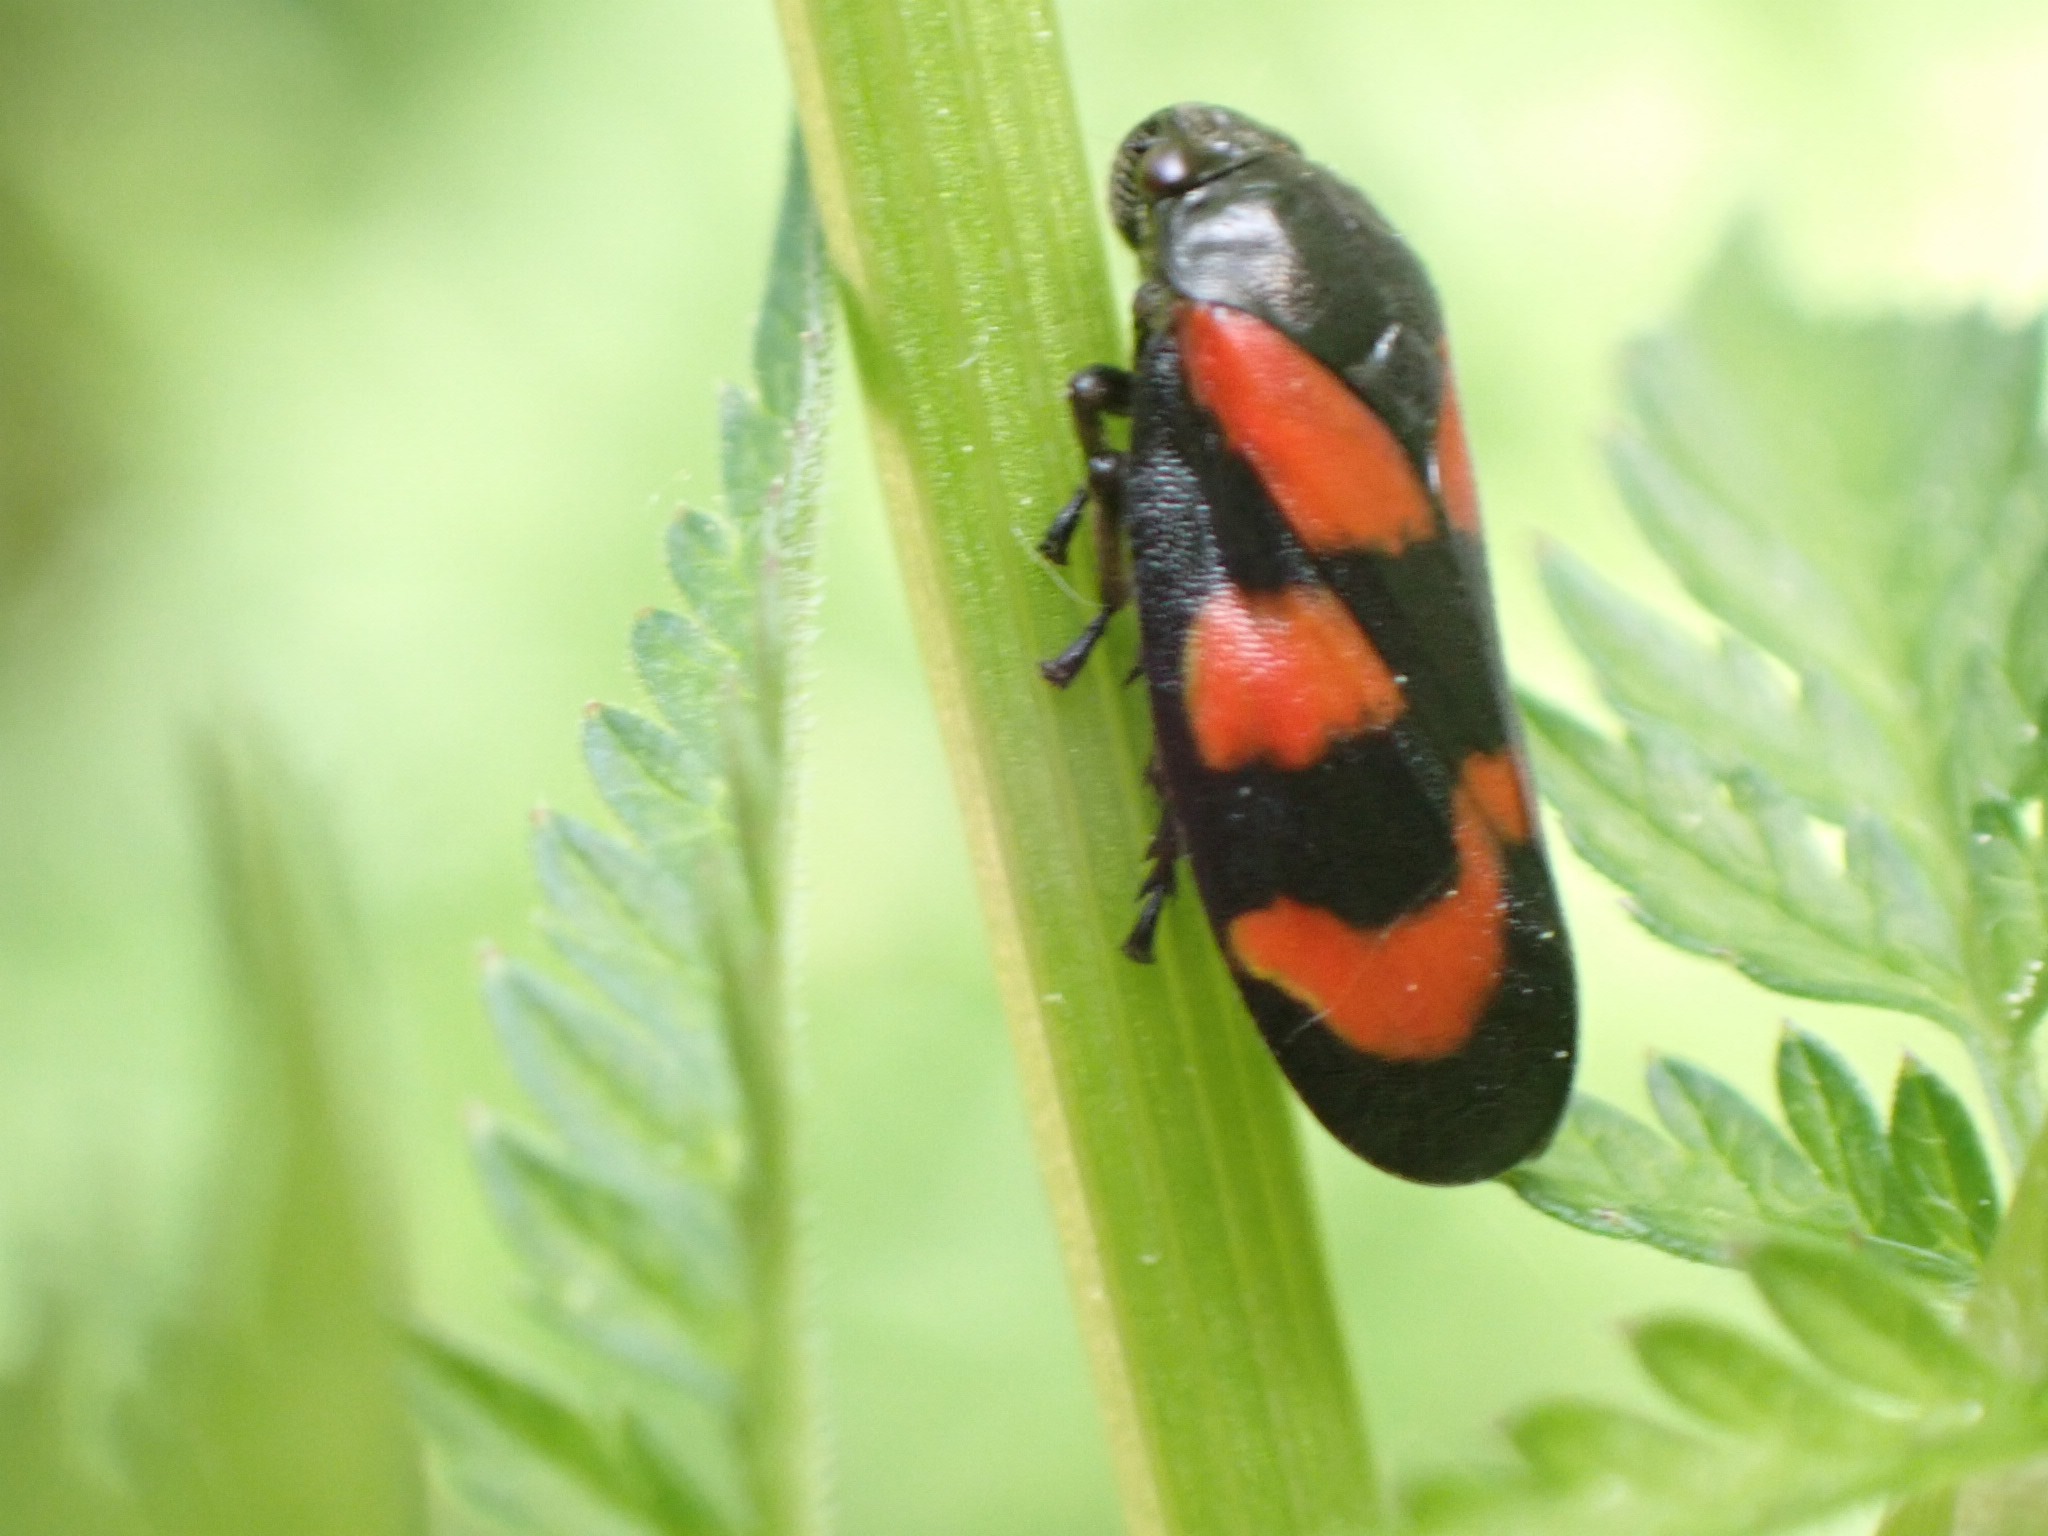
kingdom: Animalia
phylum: Arthropoda
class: Insecta
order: Hemiptera
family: Cercopidae
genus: Cercopis
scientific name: Cercopis vulnerata
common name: Blodcikade
